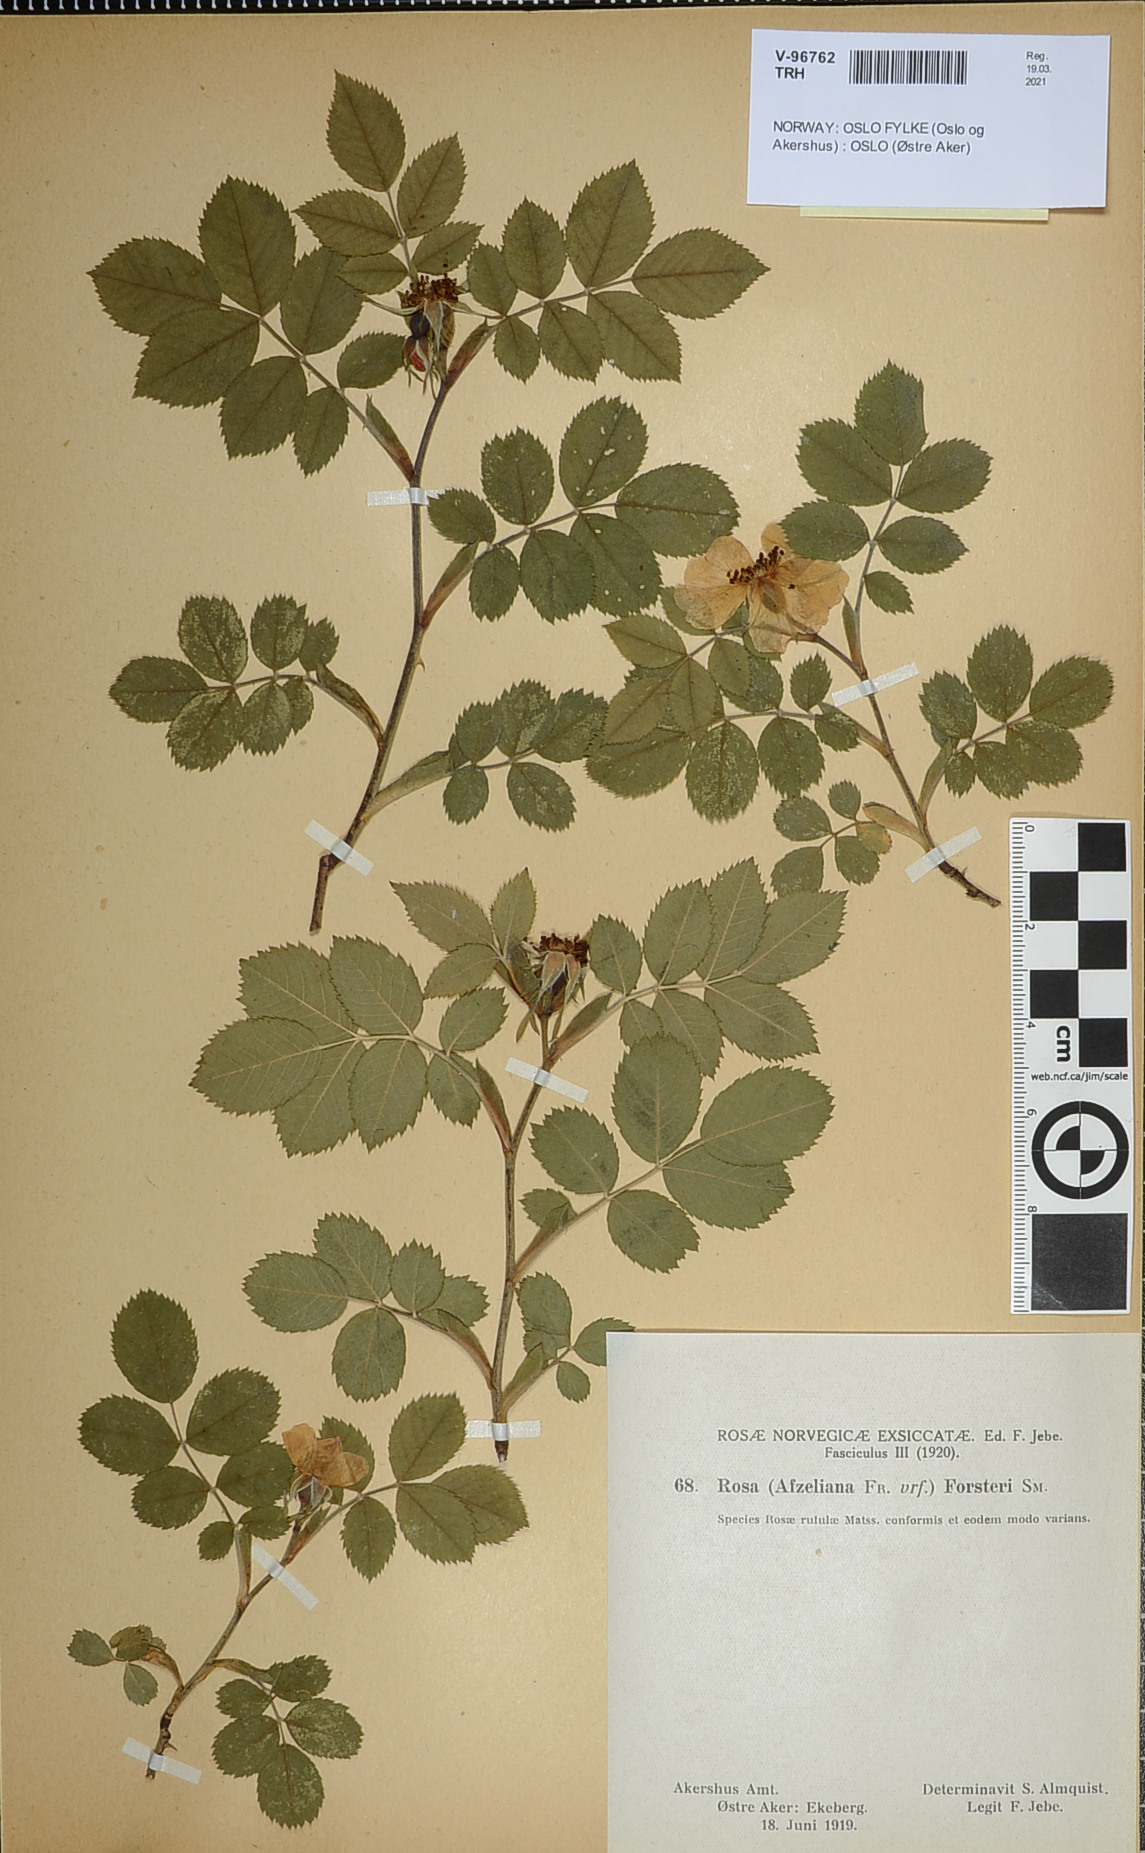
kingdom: Plantae
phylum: Tracheophyta
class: Magnoliopsida
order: Rosales
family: Rosaceae
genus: Rosa
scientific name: Rosa corymbifera
